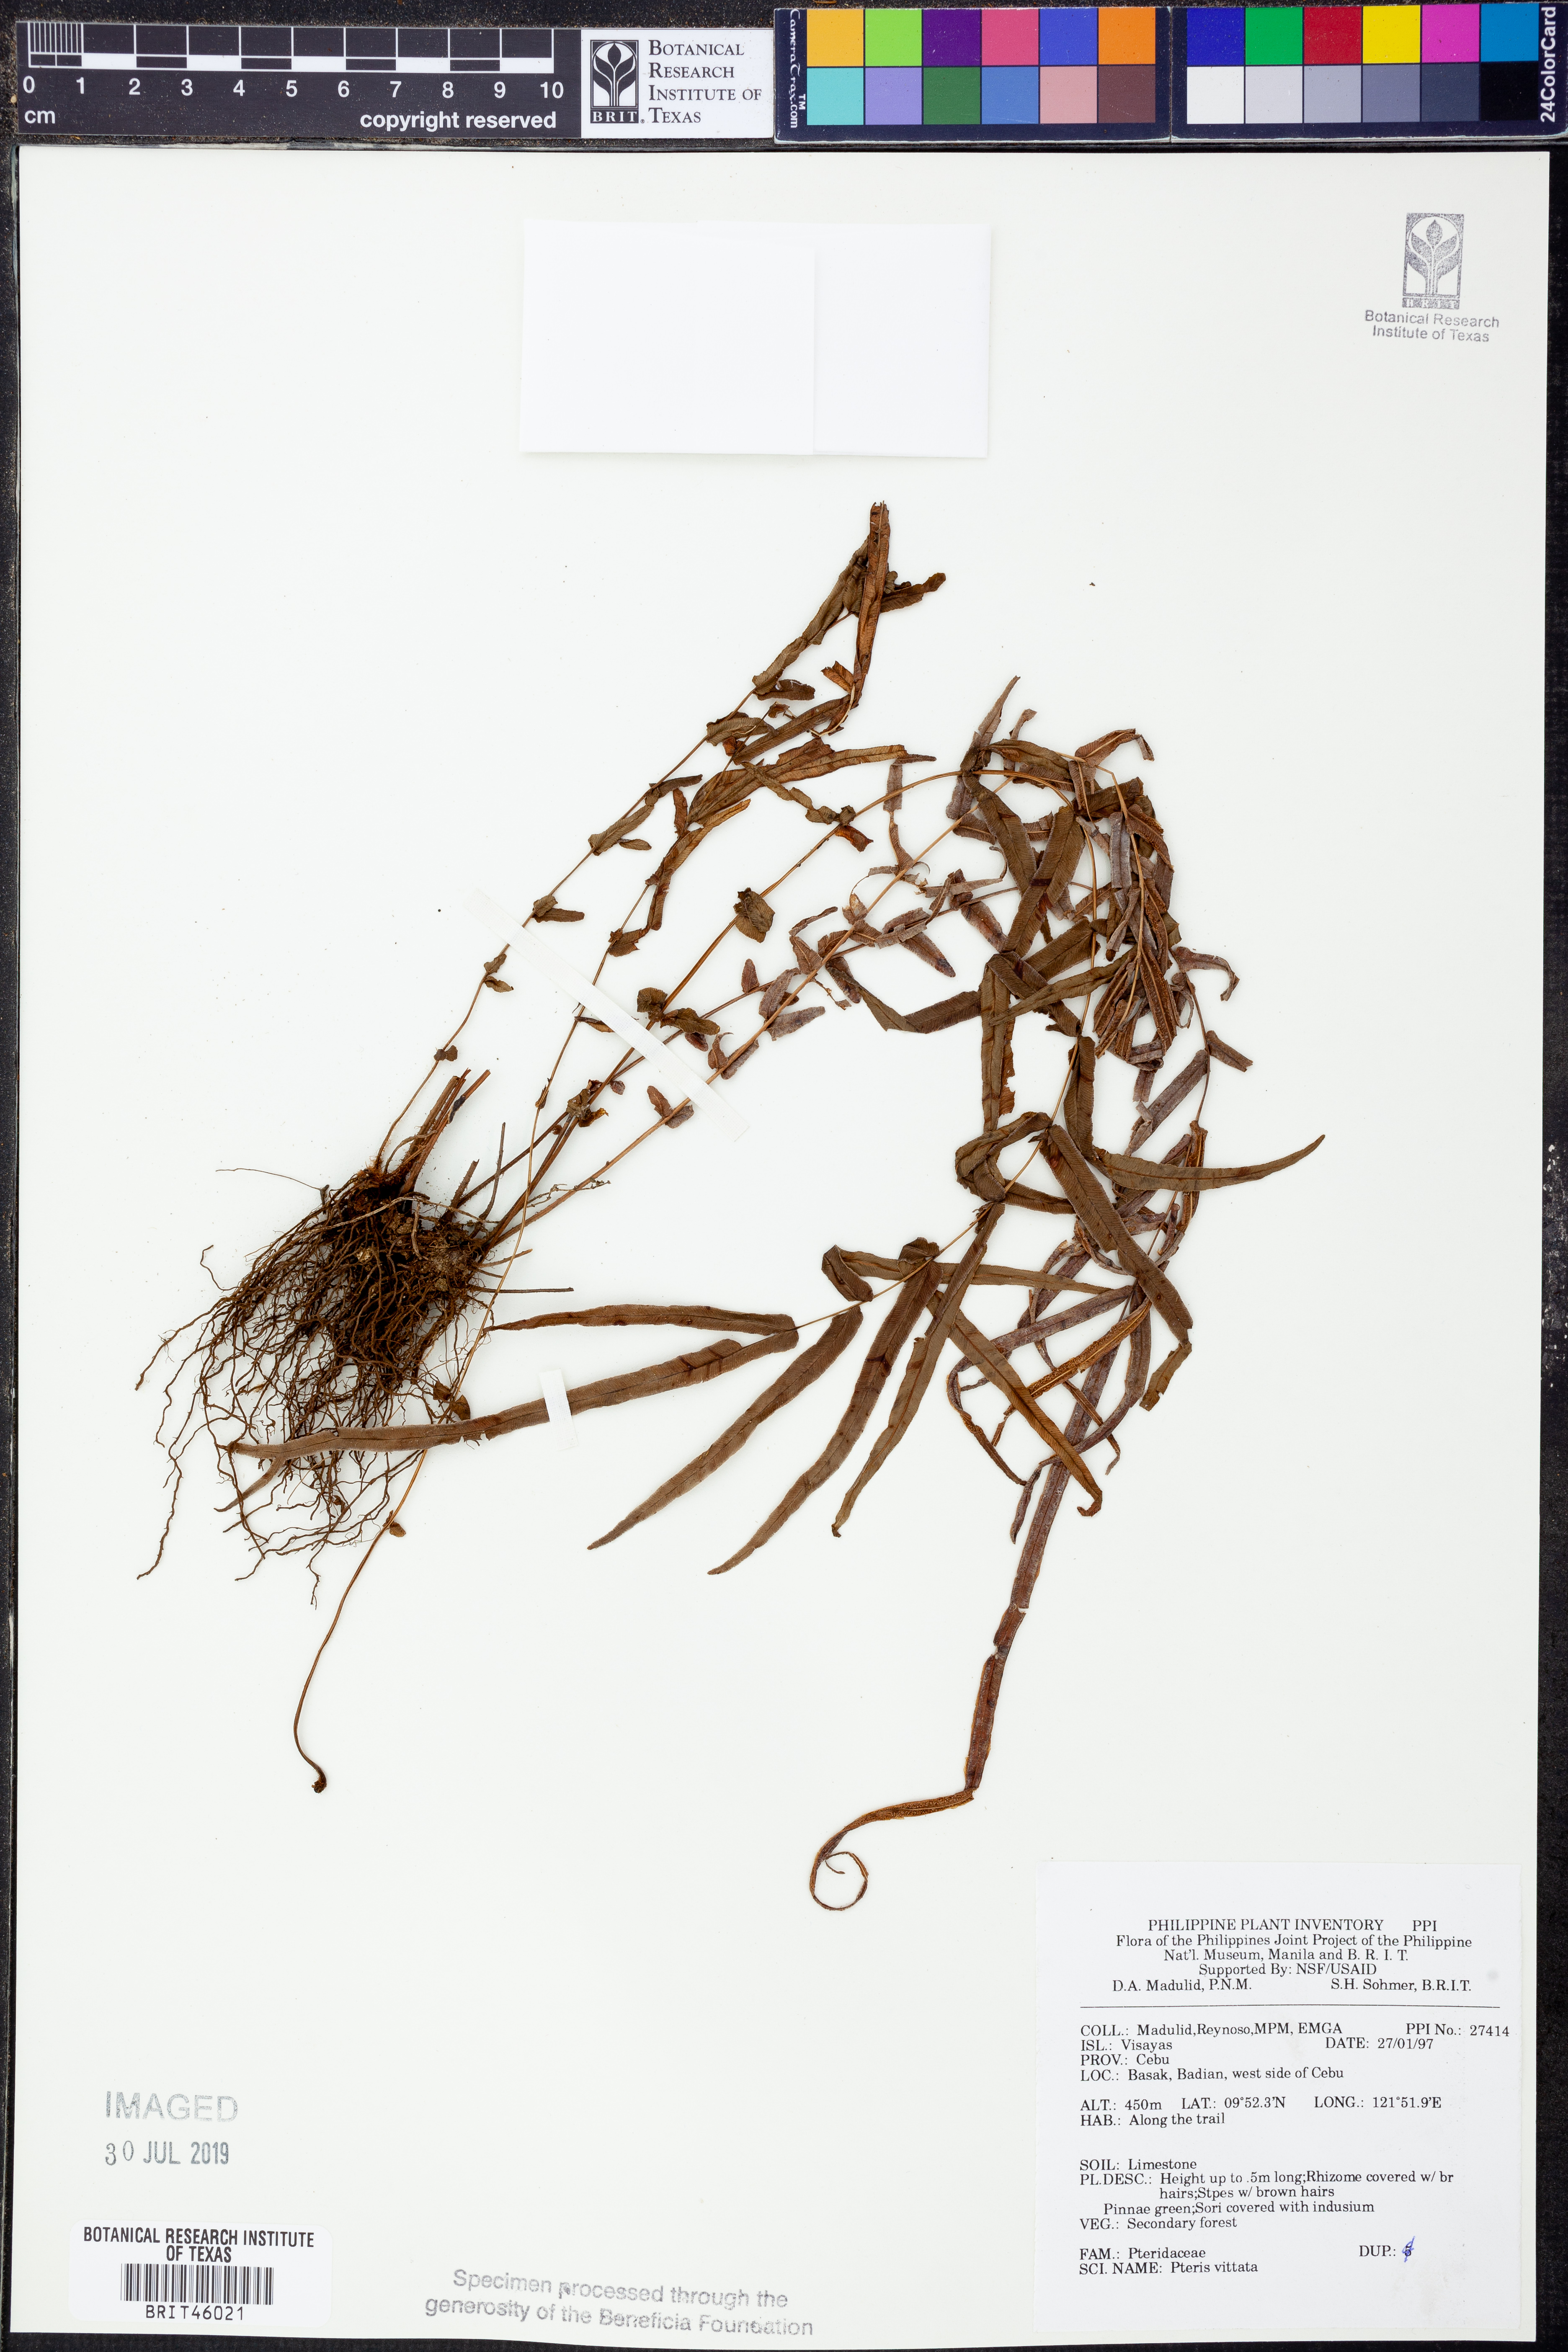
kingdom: Plantae
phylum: Tracheophyta
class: Polypodiopsida
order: Polypodiales
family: Pteridaceae
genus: Pteris
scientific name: Pteris vittata
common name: Ladder brake
